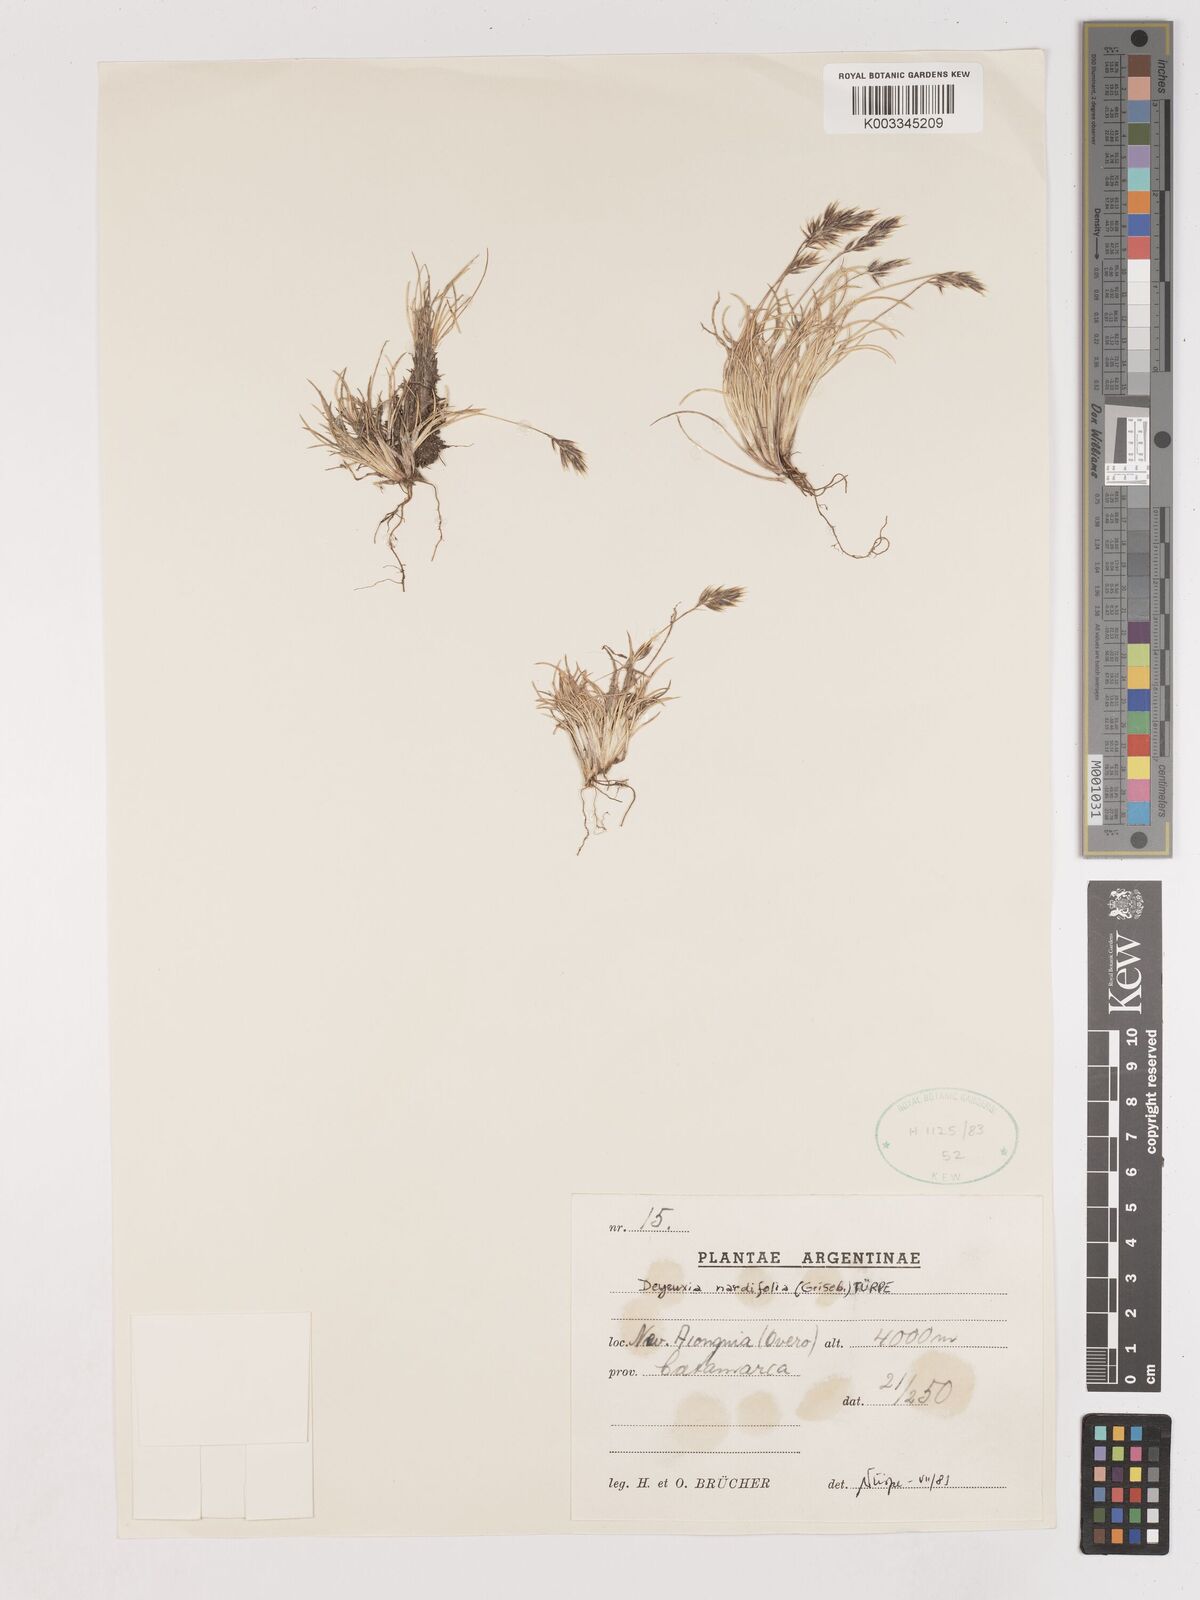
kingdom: Plantae
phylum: Tracheophyta
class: Liliopsida
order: Poales
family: Poaceae
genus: Cinnagrostis
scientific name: Cinnagrostis velutina
